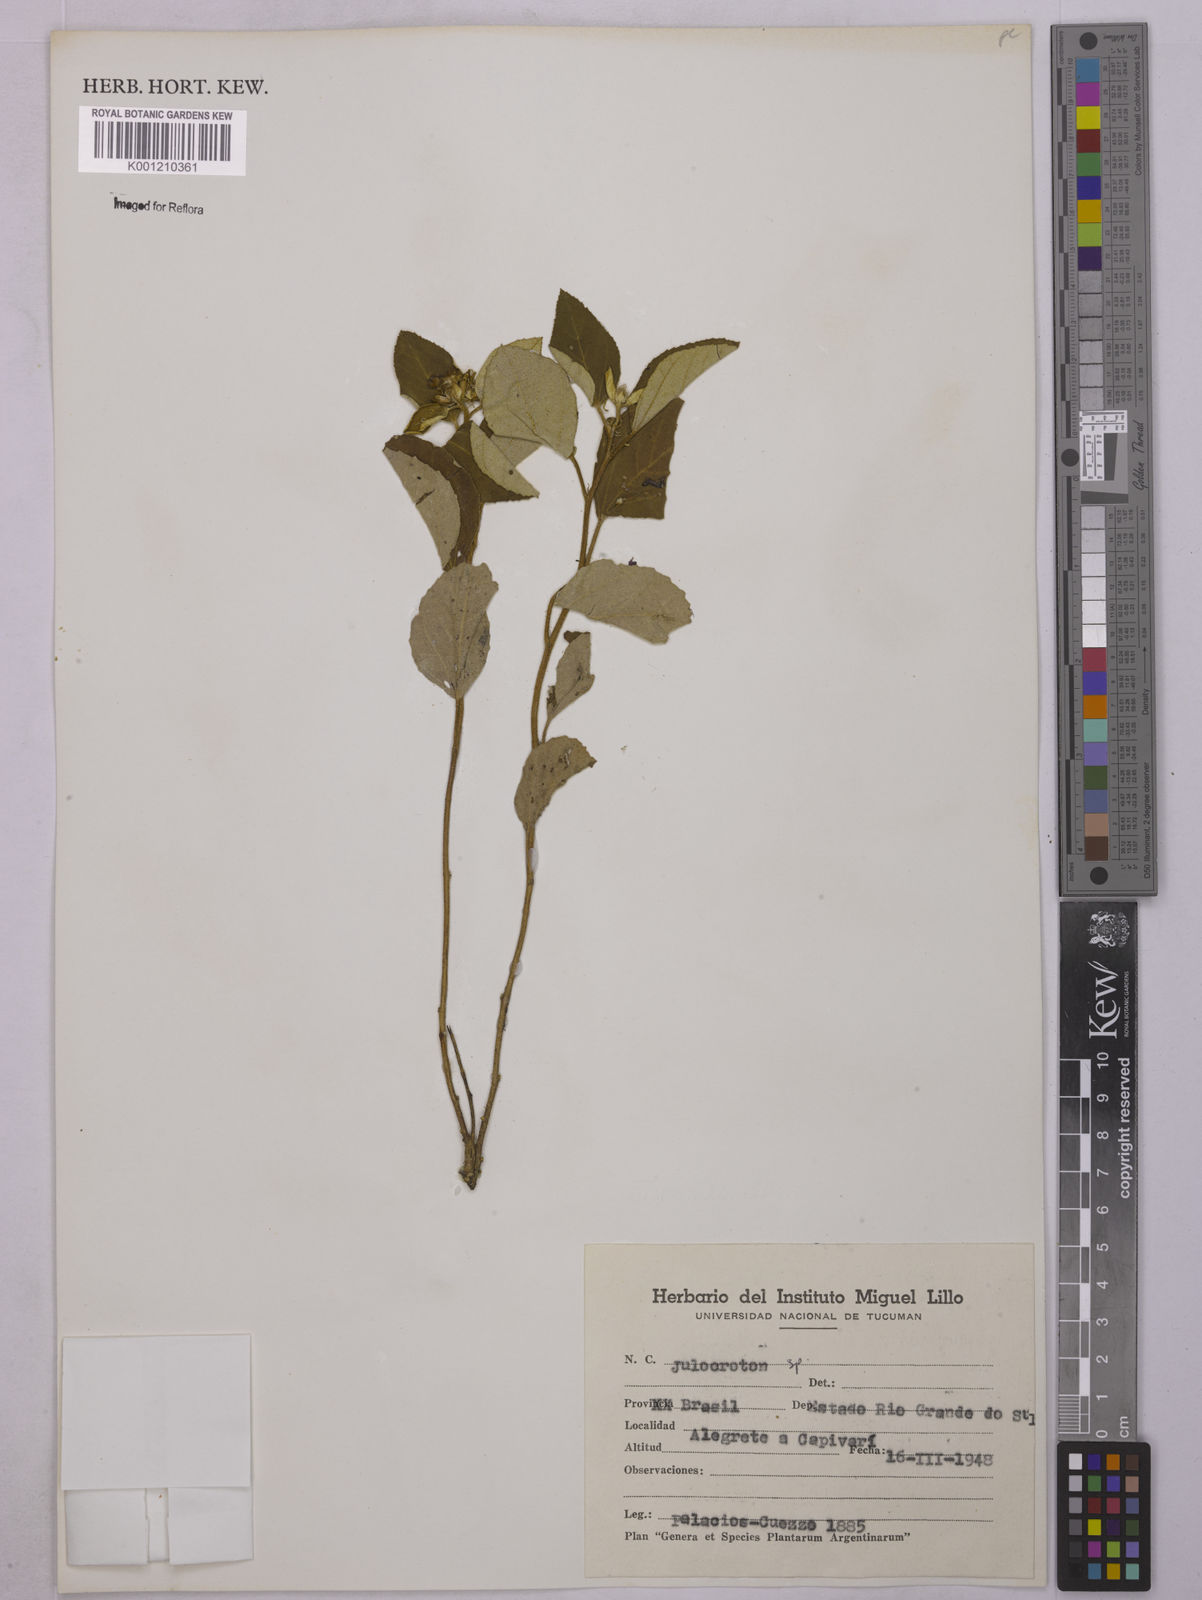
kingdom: Plantae
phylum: Tracheophyta
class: Magnoliopsida
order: Malpighiales
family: Euphorbiaceae
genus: Croton
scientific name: Croton
